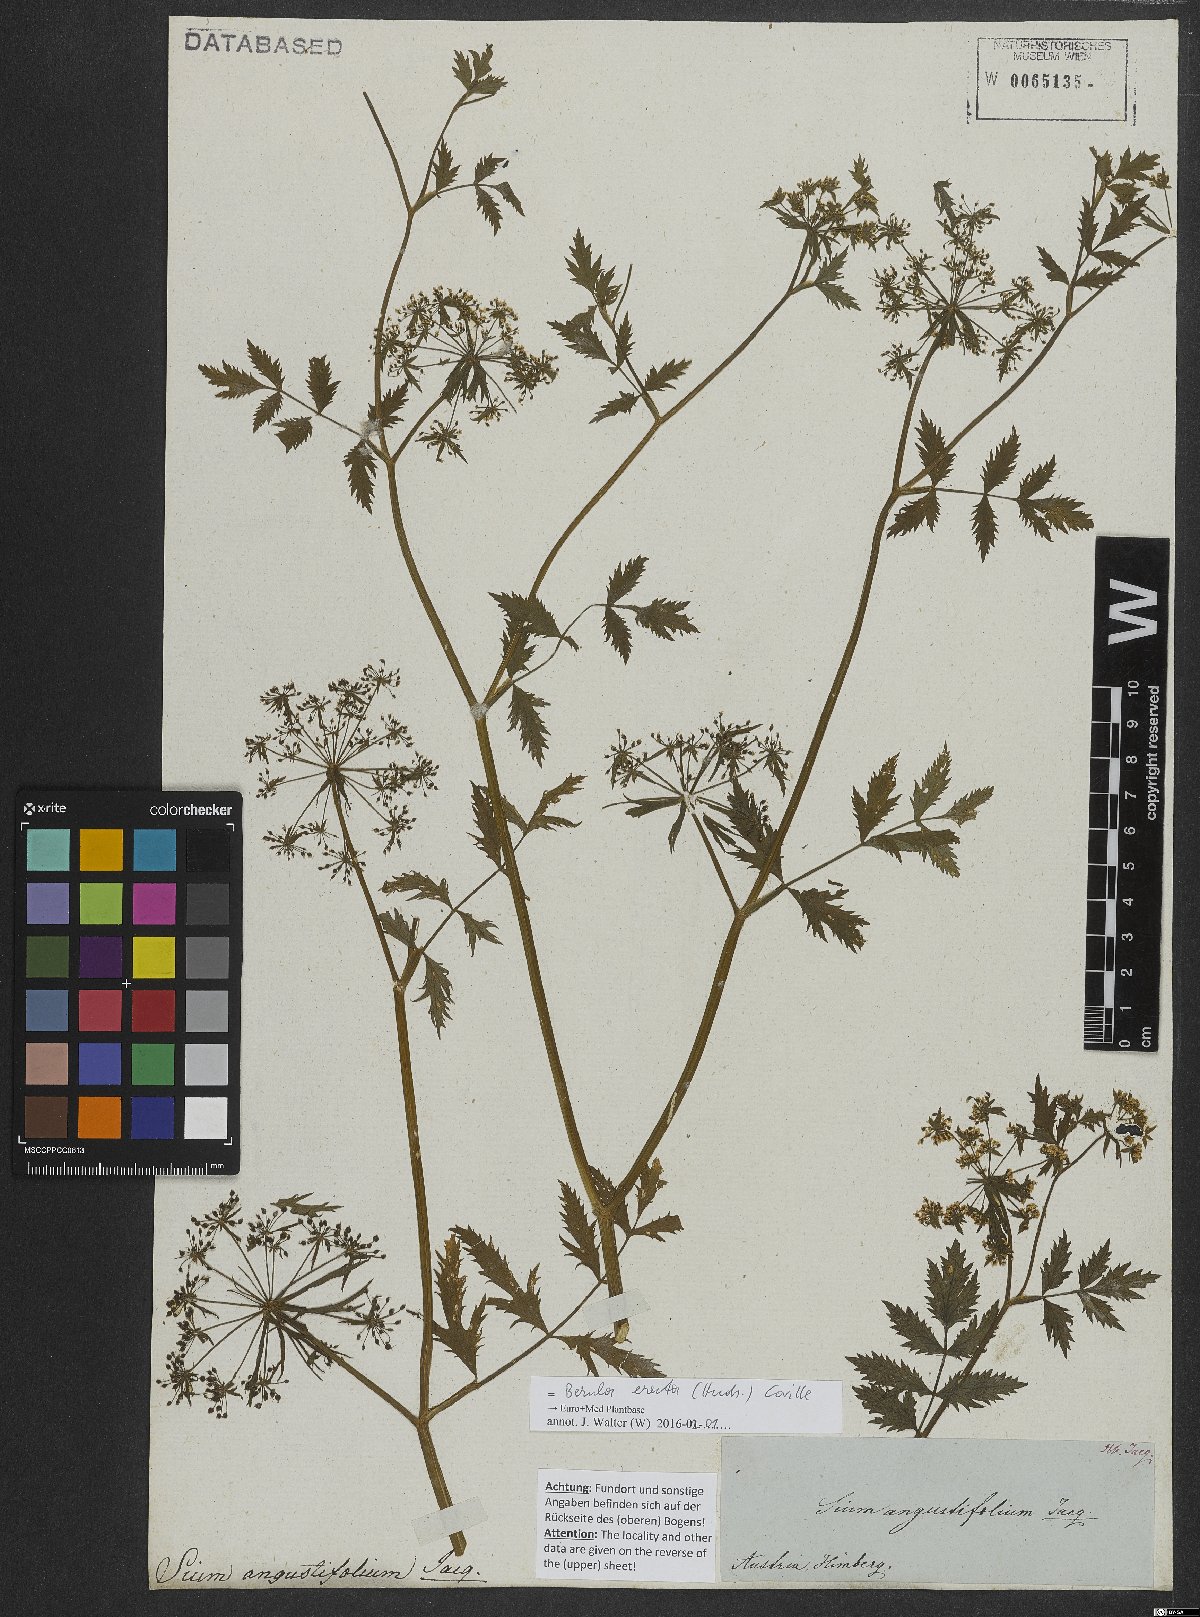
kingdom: Plantae
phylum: Tracheophyta
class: Magnoliopsida
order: Apiales
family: Apiaceae
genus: Berula
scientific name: Berula erecta
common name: Lesser water-parsnip
